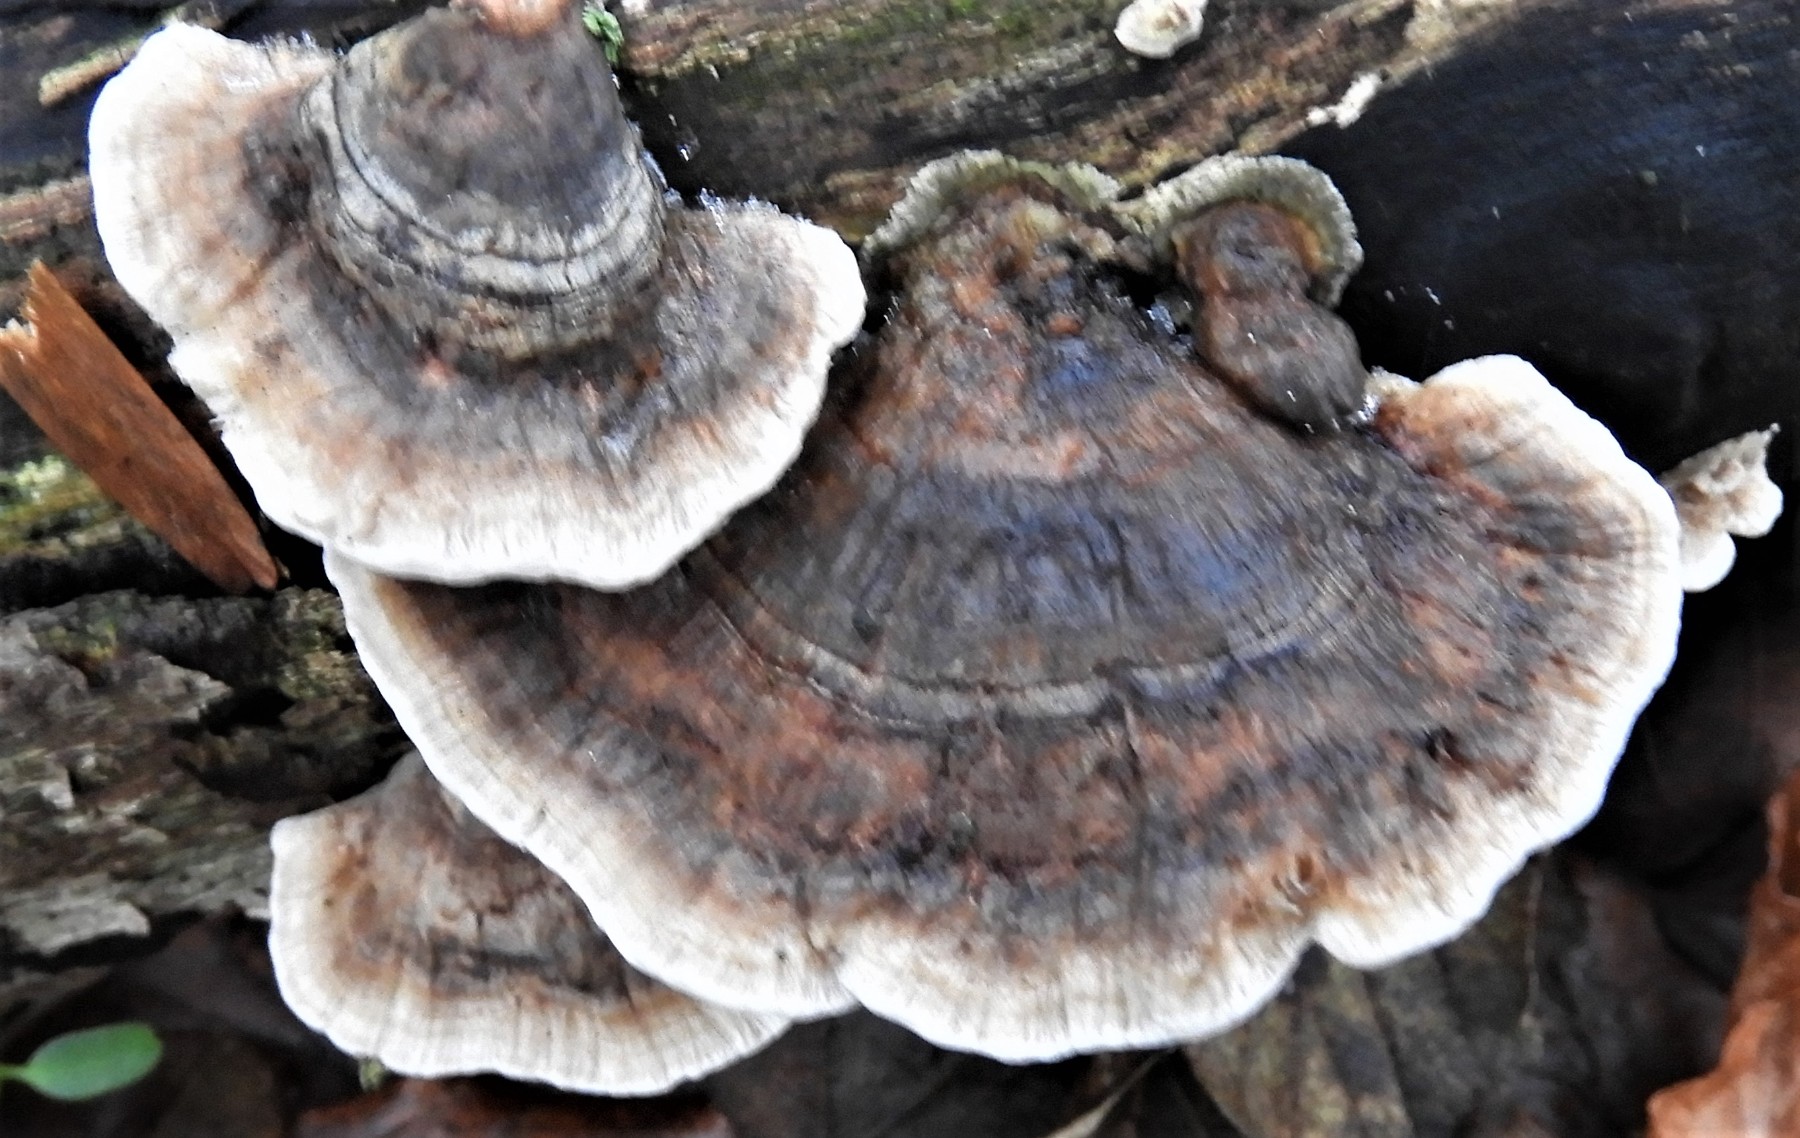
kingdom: Fungi
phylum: Basidiomycota
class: Agaricomycetes
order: Polyporales
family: Polyporaceae
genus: Trametes
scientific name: Trametes versicolor
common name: broget læderporesvamp
